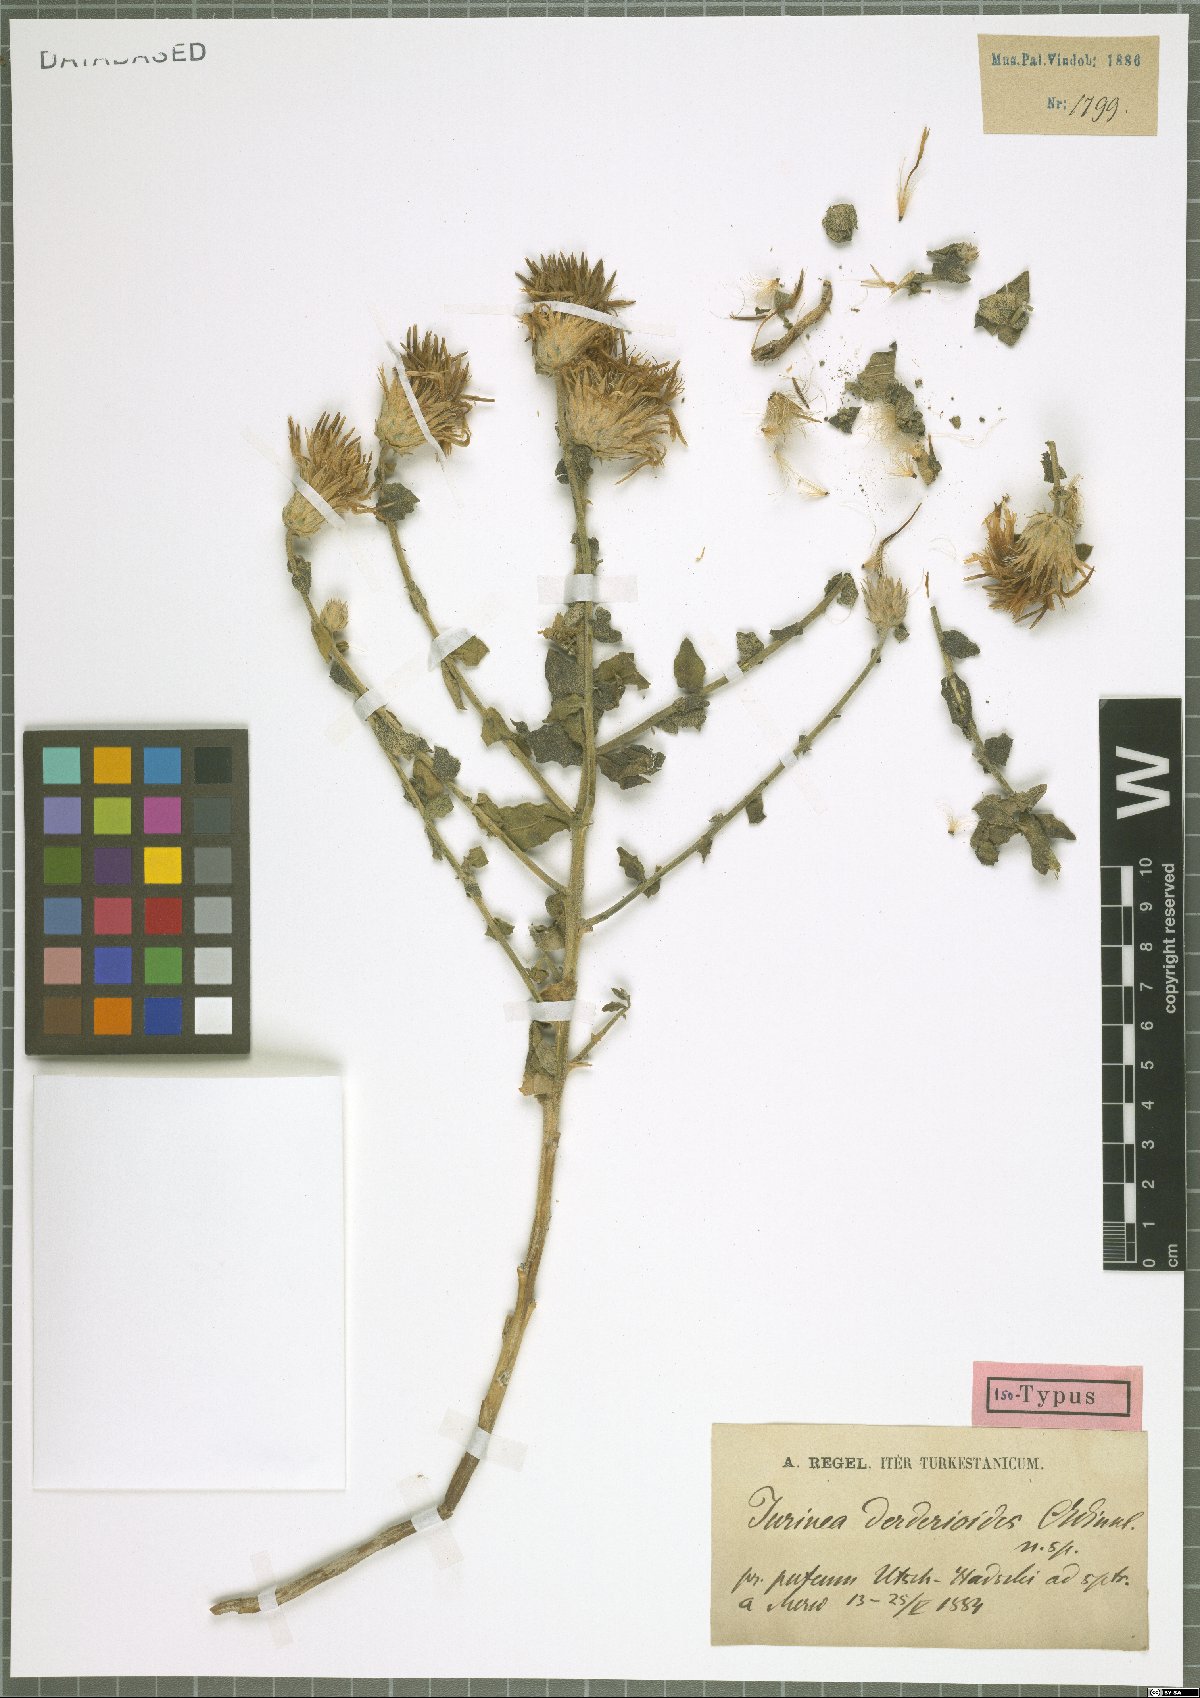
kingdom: Plantae
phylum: Tracheophyta
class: Magnoliopsida
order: Asterales
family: Asteraceae
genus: Jurinea
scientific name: Jurinea derderioides
